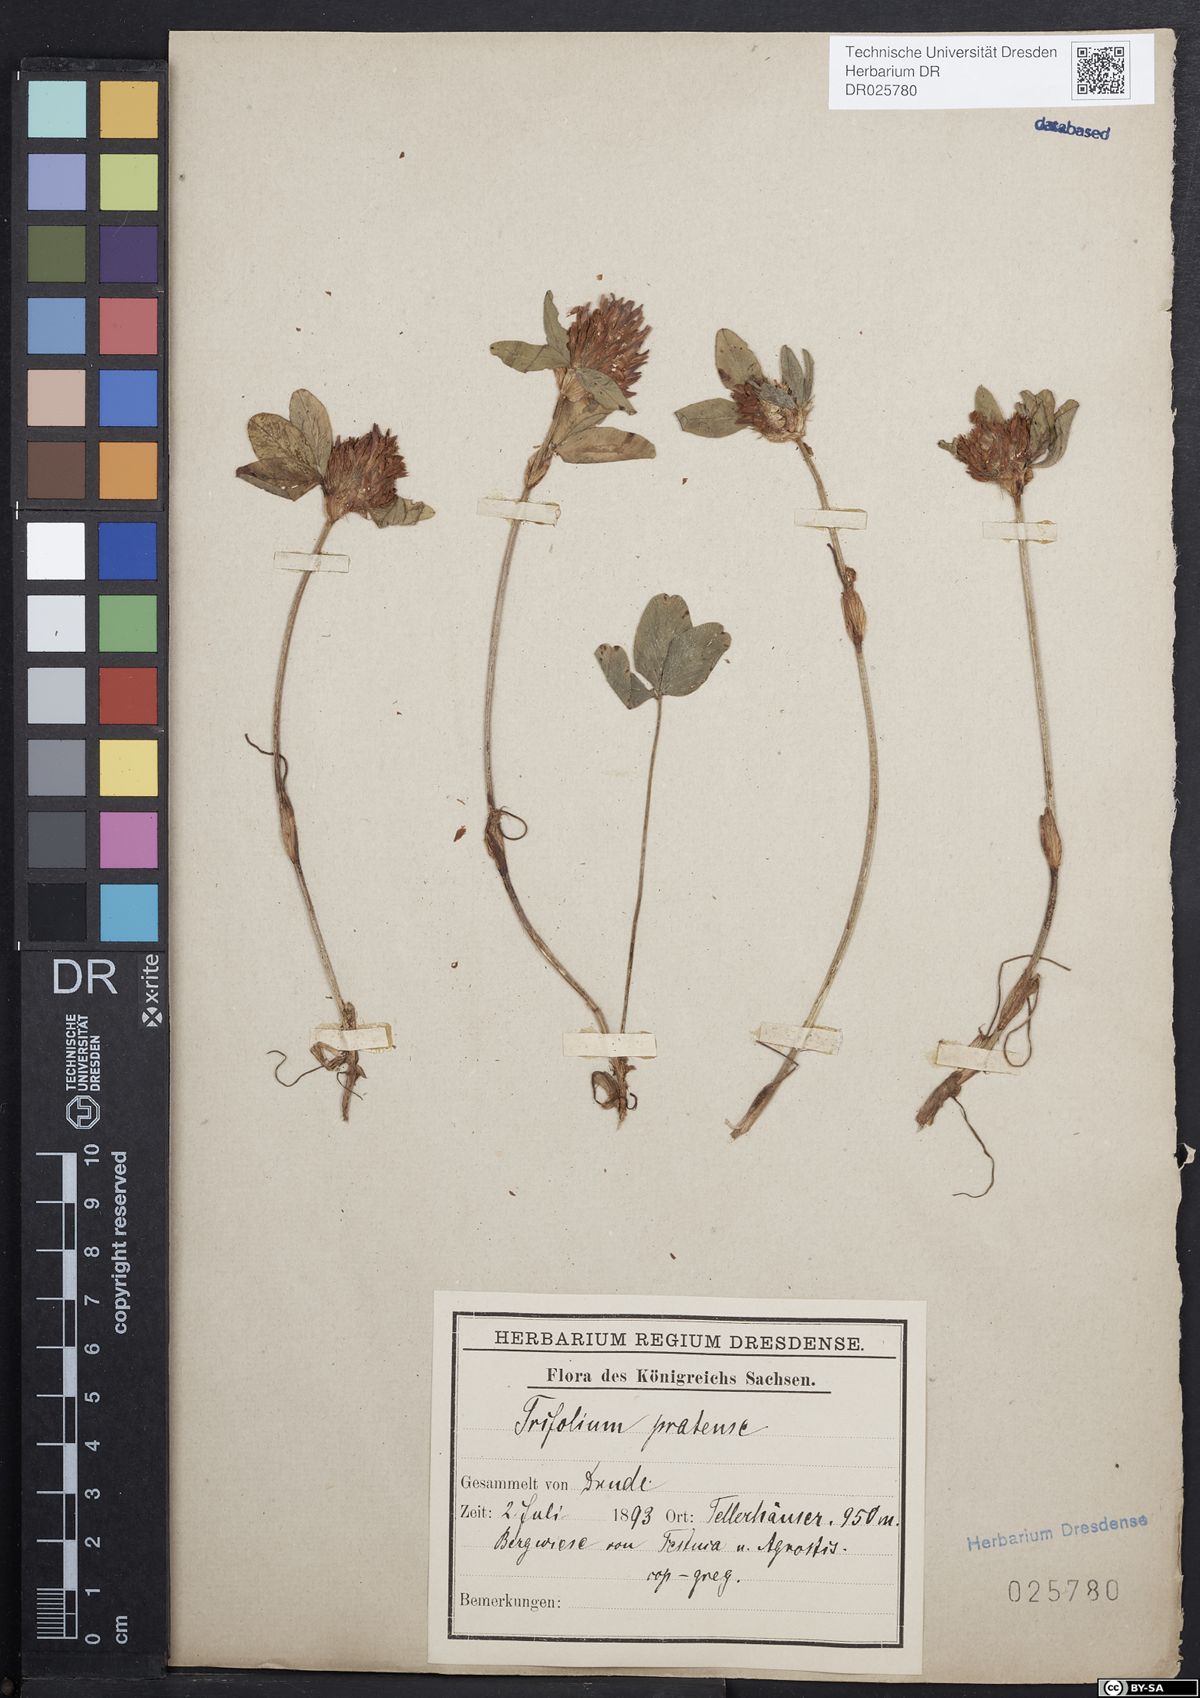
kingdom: Plantae
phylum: Tracheophyta
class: Magnoliopsida
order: Fabales
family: Fabaceae
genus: Trifolium
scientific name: Trifolium pratense
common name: Red clover
